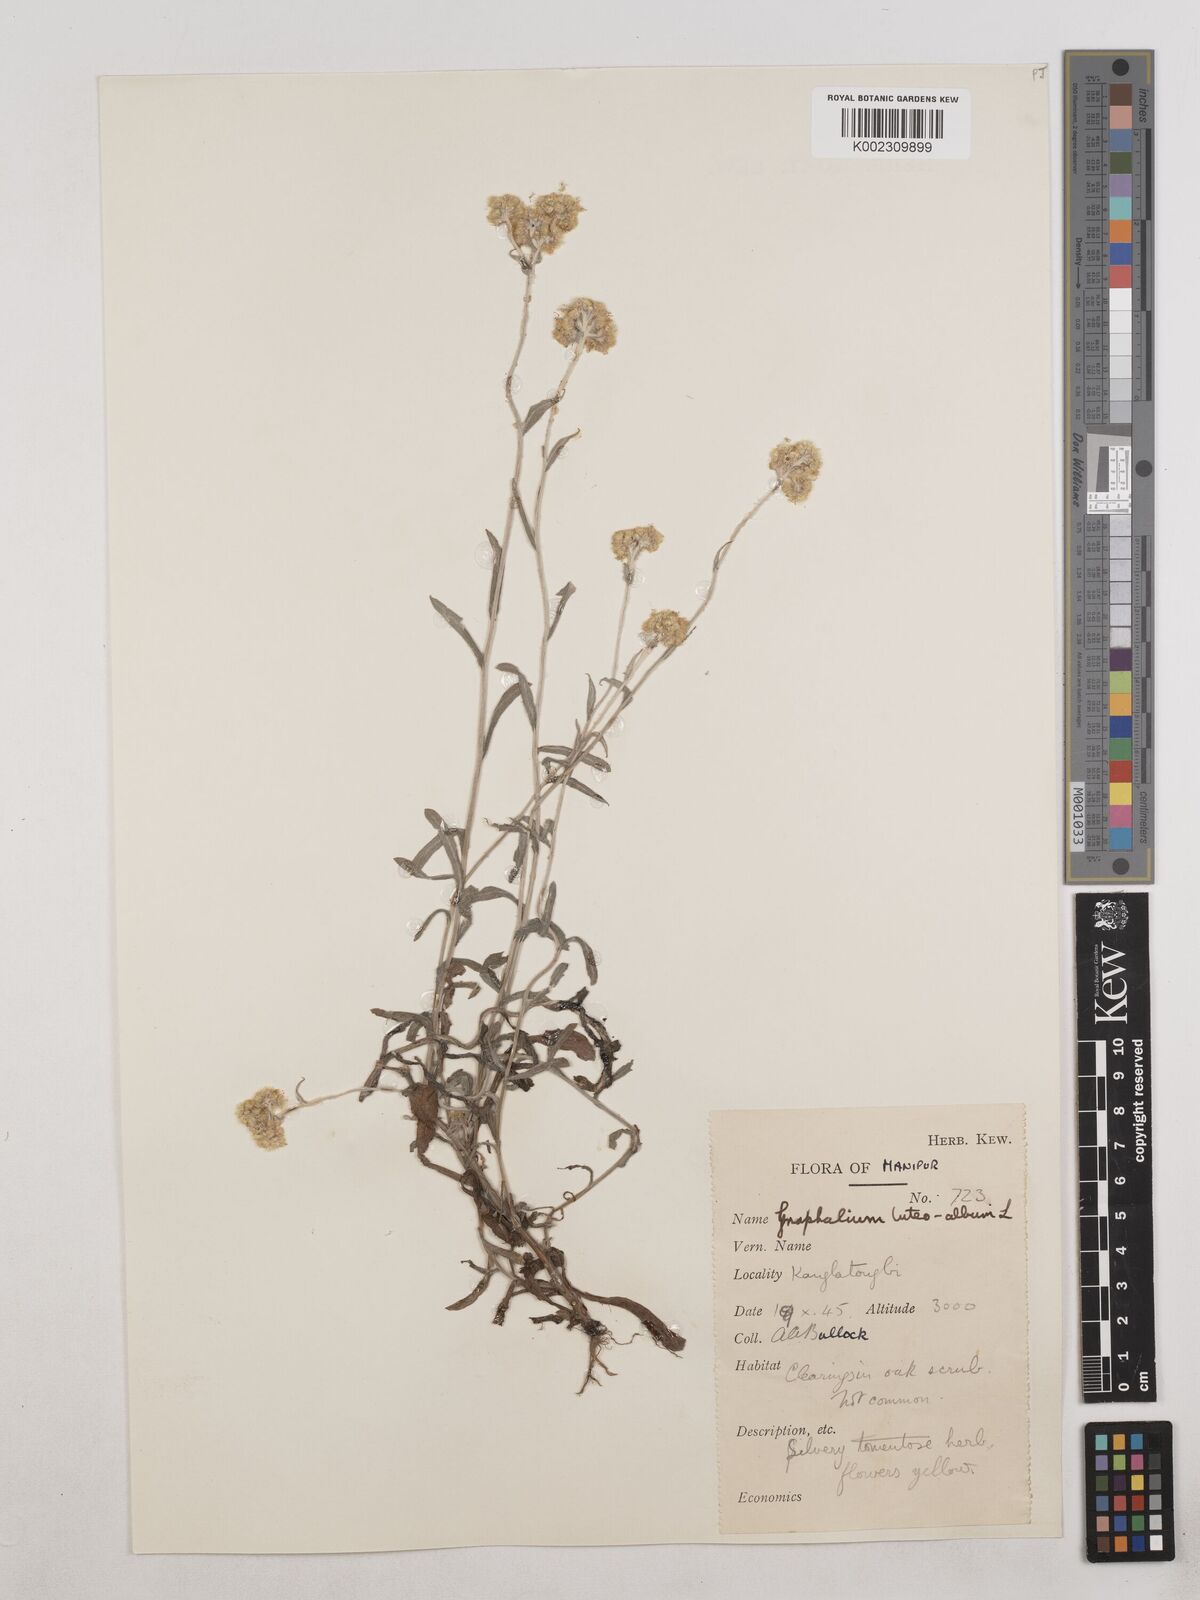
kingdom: Plantae
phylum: Tracheophyta
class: Magnoliopsida
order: Asterales
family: Asteraceae
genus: Pseudognaphalium
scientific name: Pseudognaphalium affine
